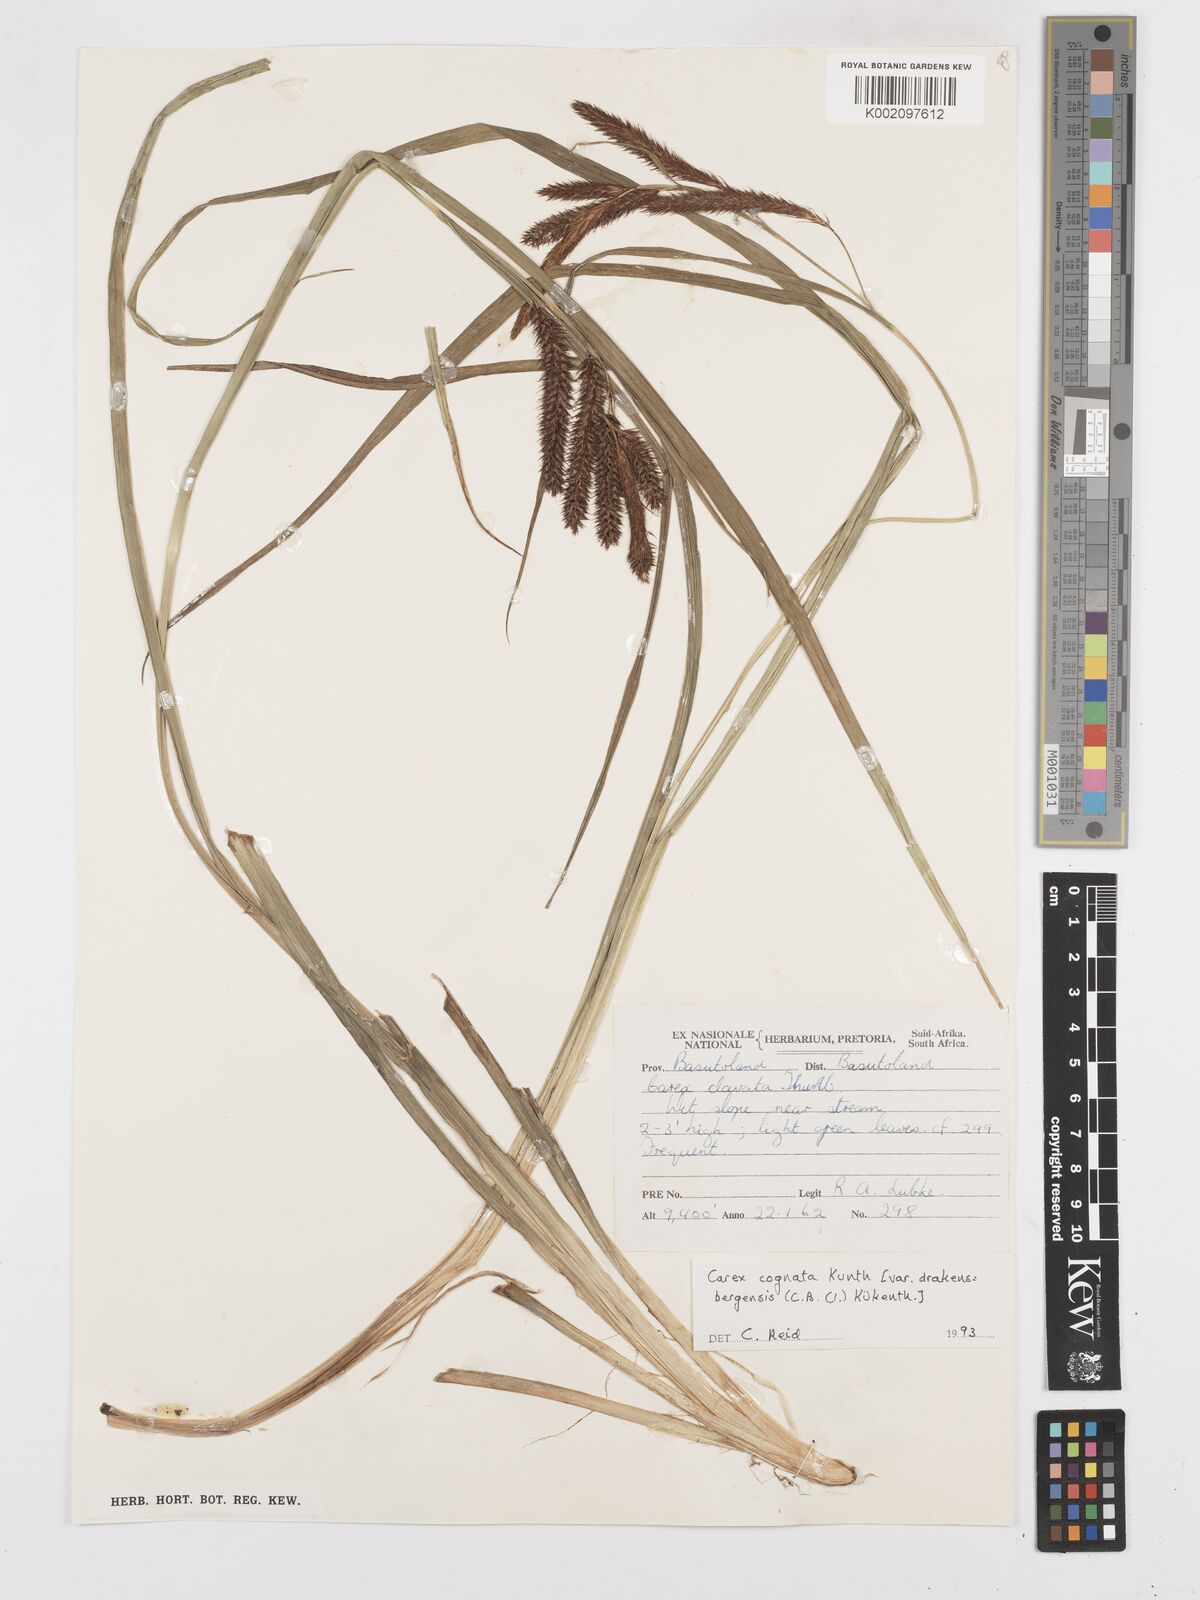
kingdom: Plantae
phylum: Tracheophyta
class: Liliopsida
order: Poales
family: Cyperaceae
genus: Carex
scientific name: Carex cognata
